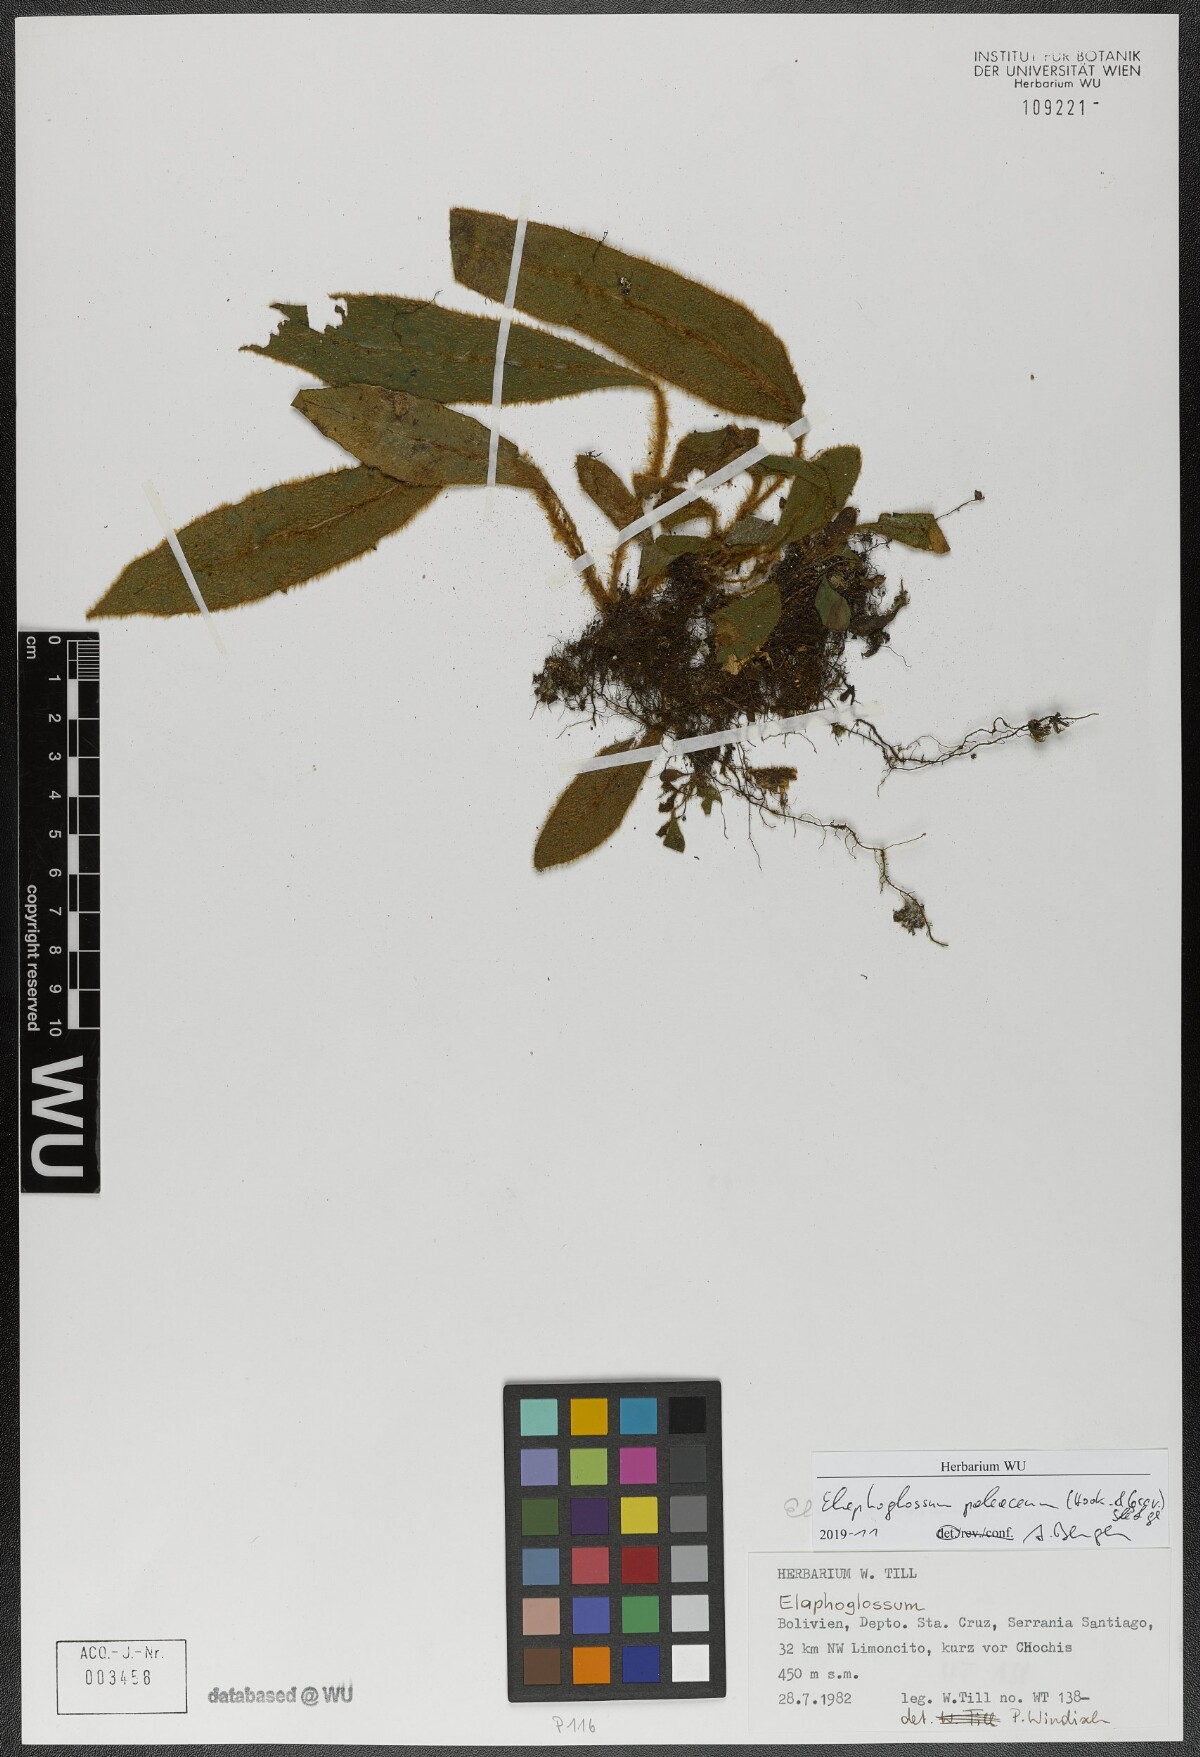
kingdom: Plantae
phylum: Tracheophyta
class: Polypodiopsida
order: Polypodiales
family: Dryopteridaceae
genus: Elaphoglossum
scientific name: Elaphoglossum paleaceum
